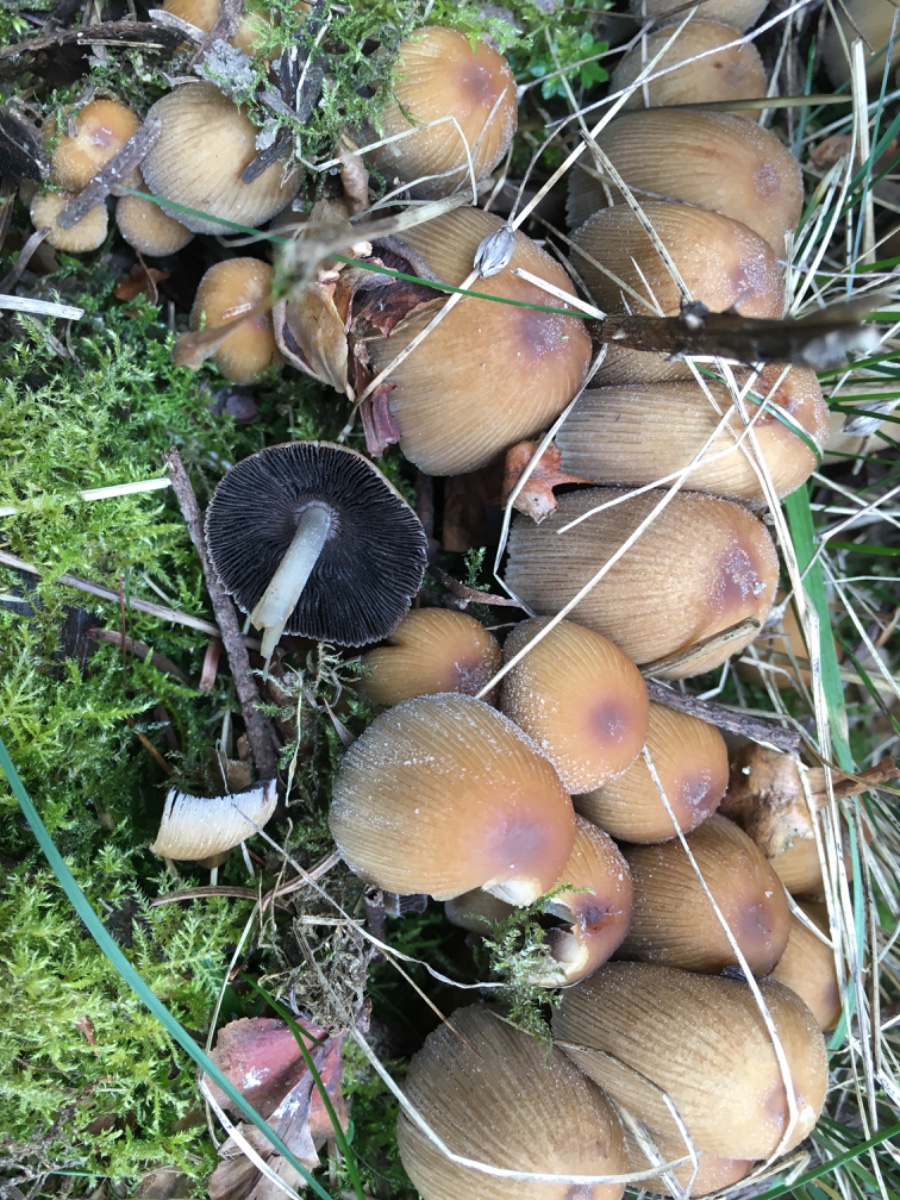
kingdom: Fungi
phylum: Basidiomycota
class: Agaricomycetes
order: Agaricales
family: Psathyrellaceae
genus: Coprinellus
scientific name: Coprinellus micaceus
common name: glimmer-blækhat
